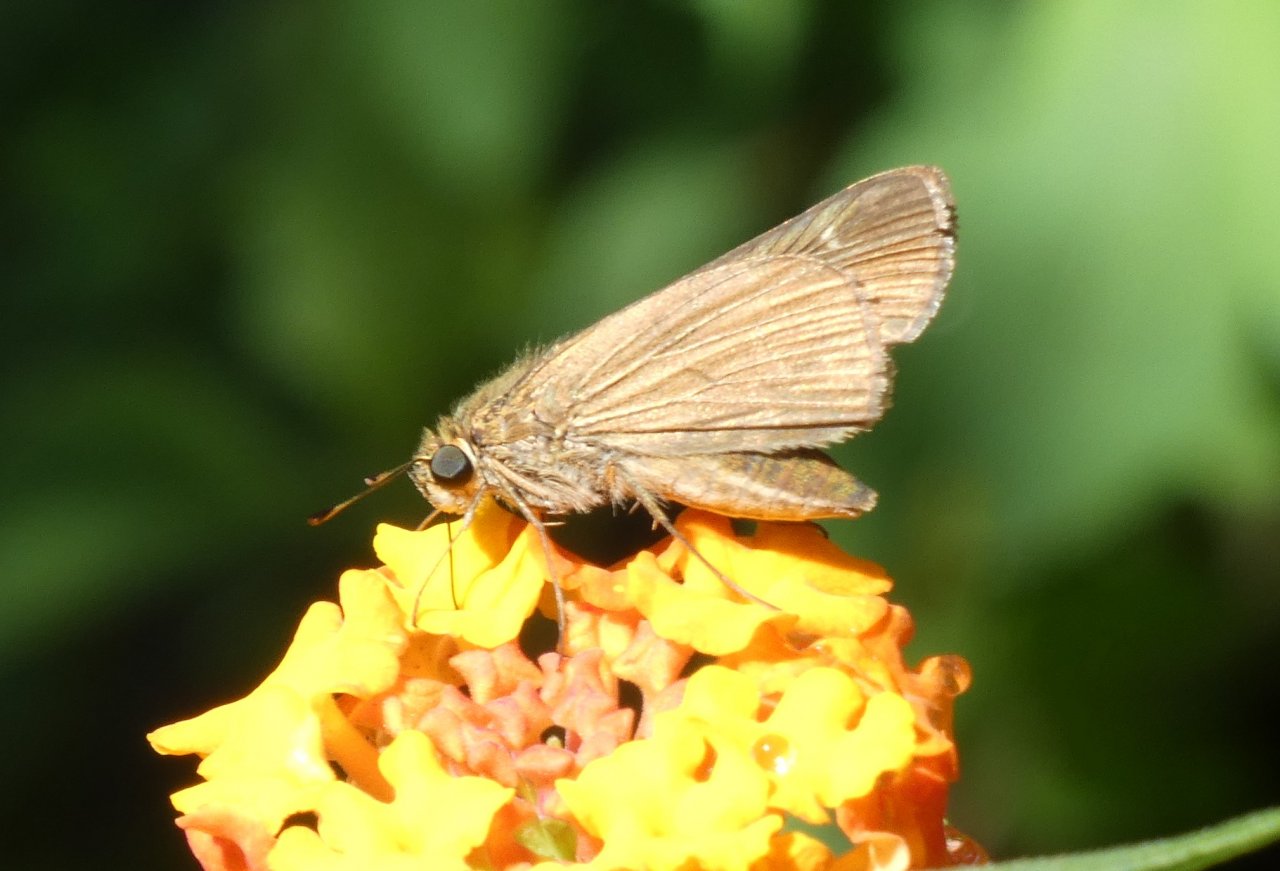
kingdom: Animalia
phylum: Arthropoda
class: Insecta
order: Lepidoptera
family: Hesperiidae
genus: Panoquina
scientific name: Panoquina ocola
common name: Ocola Skipper
